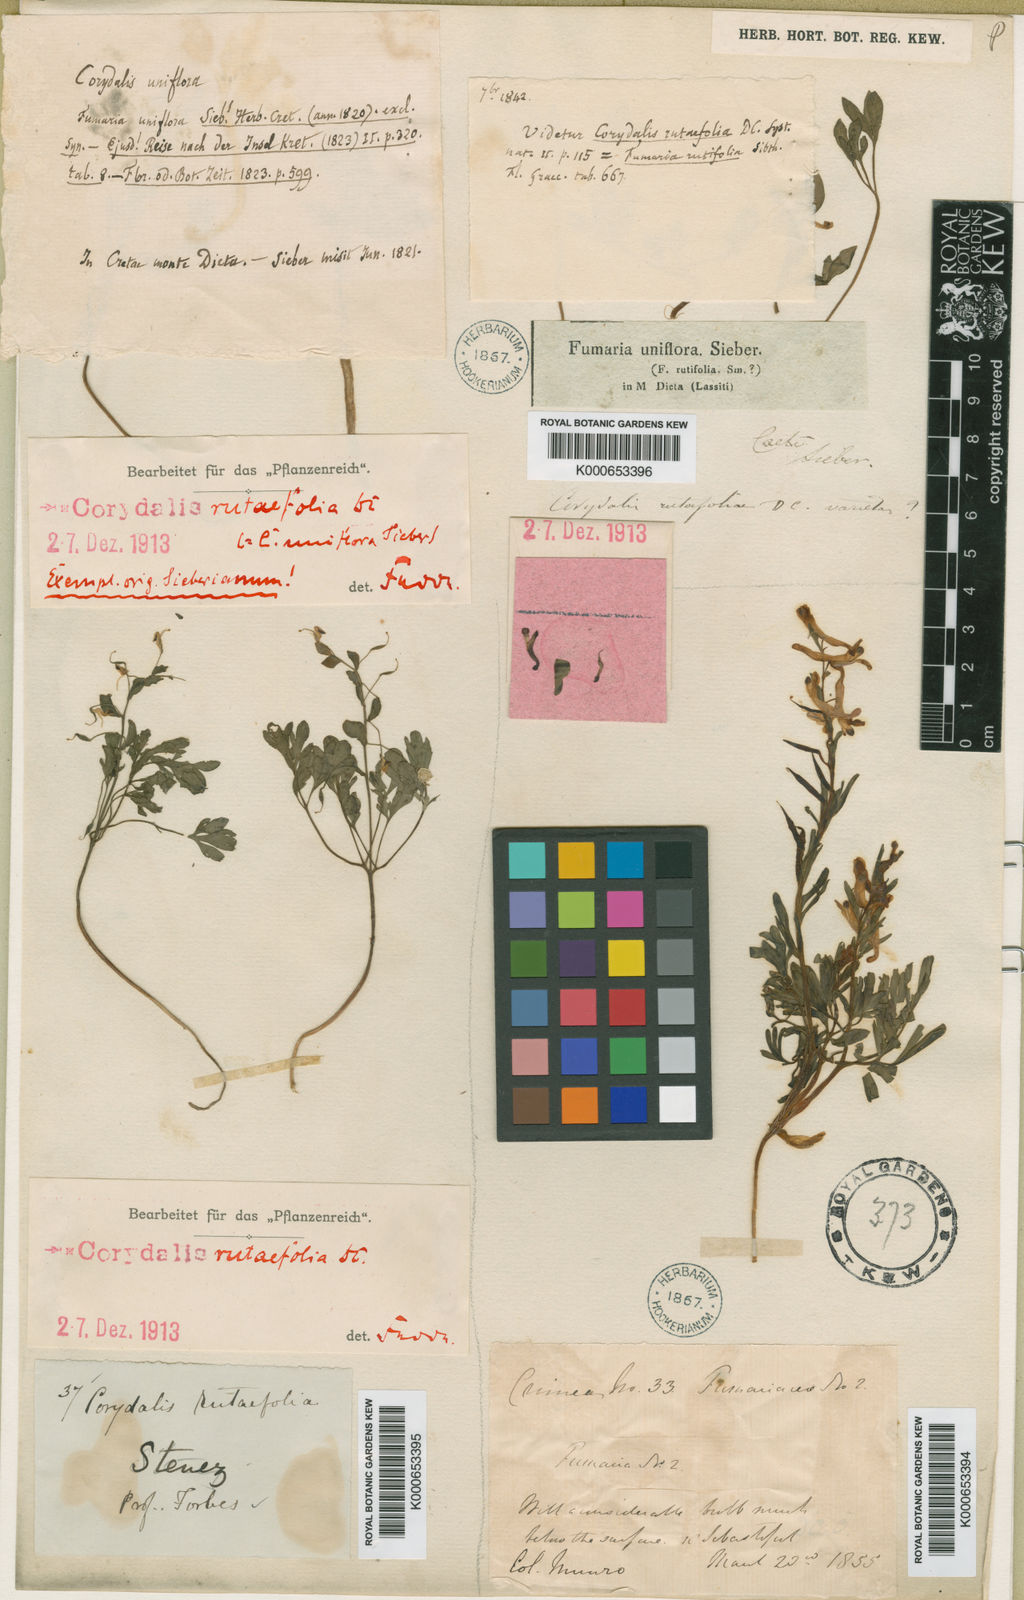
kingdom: Plantae
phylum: Tracheophyta
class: Magnoliopsida
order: Ranunculales
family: Papaveraceae
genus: Corydalis
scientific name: Corydalis rutifolia
